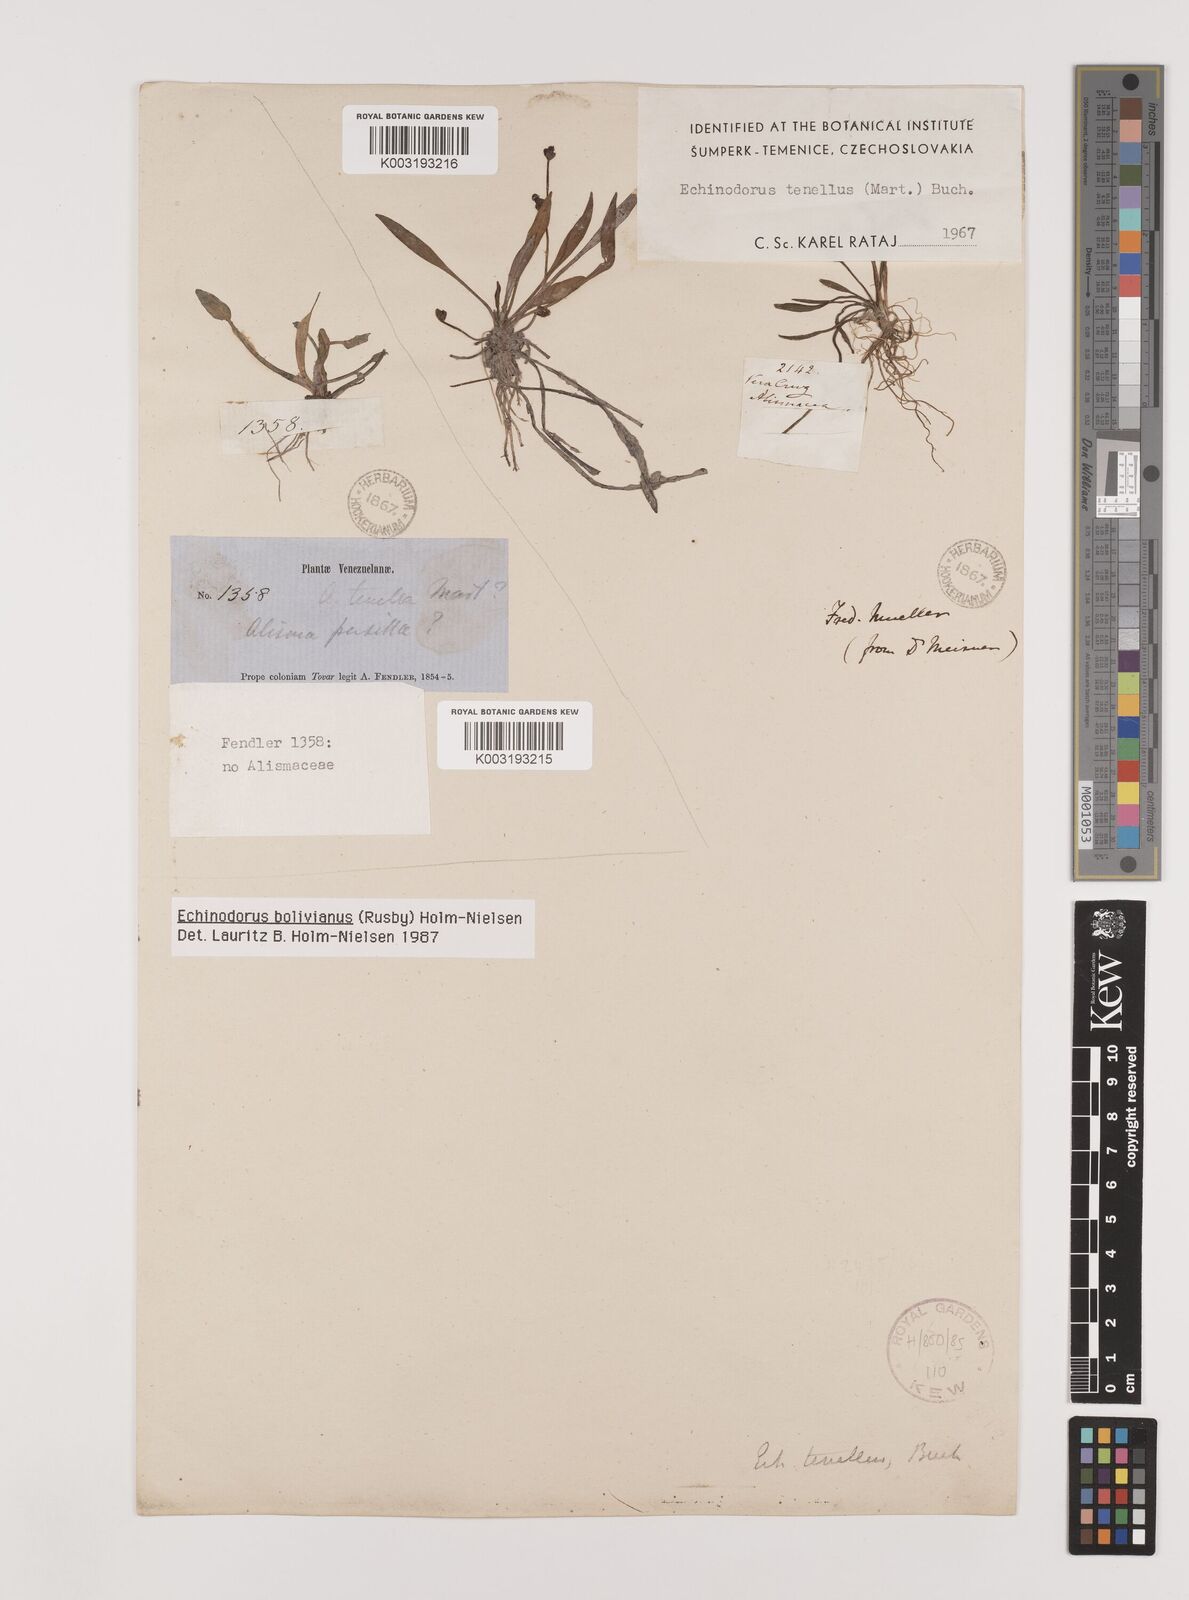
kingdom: Plantae
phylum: Tracheophyta
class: Liliopsida
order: Alismatales
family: Alismataceae
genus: Helanthium
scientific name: Helanthium bolivianum
